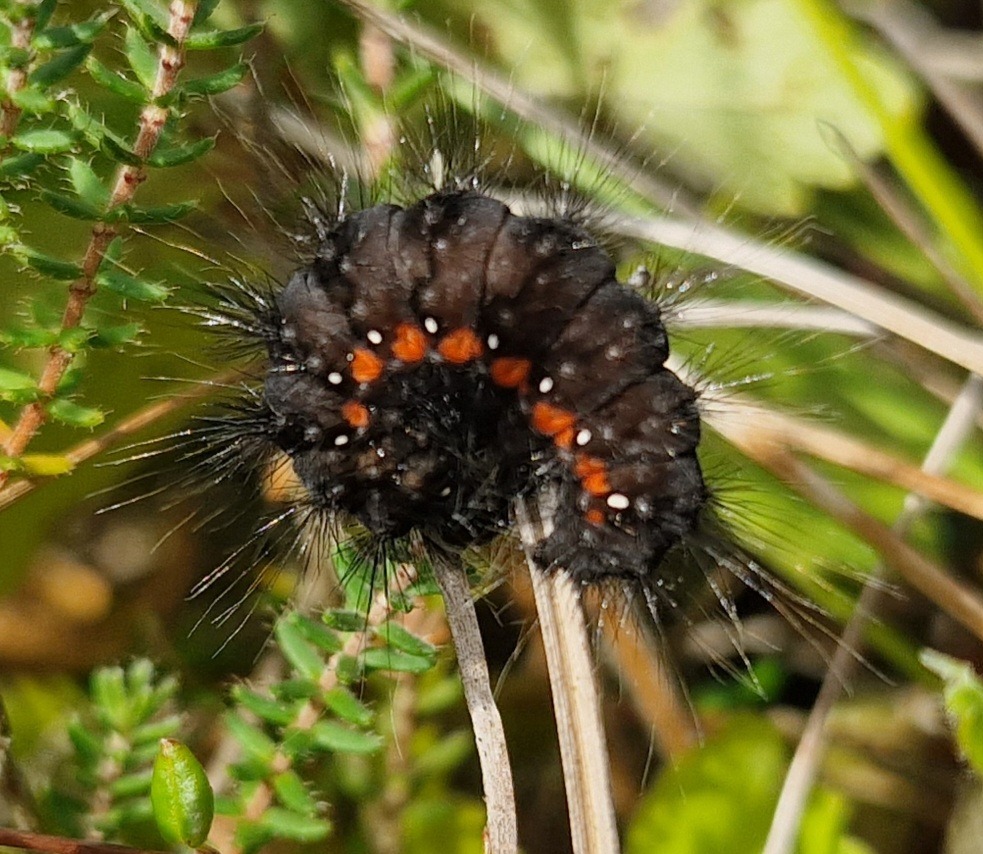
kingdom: Animalia
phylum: Arthropoda
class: Insecta
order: Lepidoptera
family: Noctuidae
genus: Acronicta
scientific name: Acronicta menyanthidis
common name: Hedemose-pelsugle
